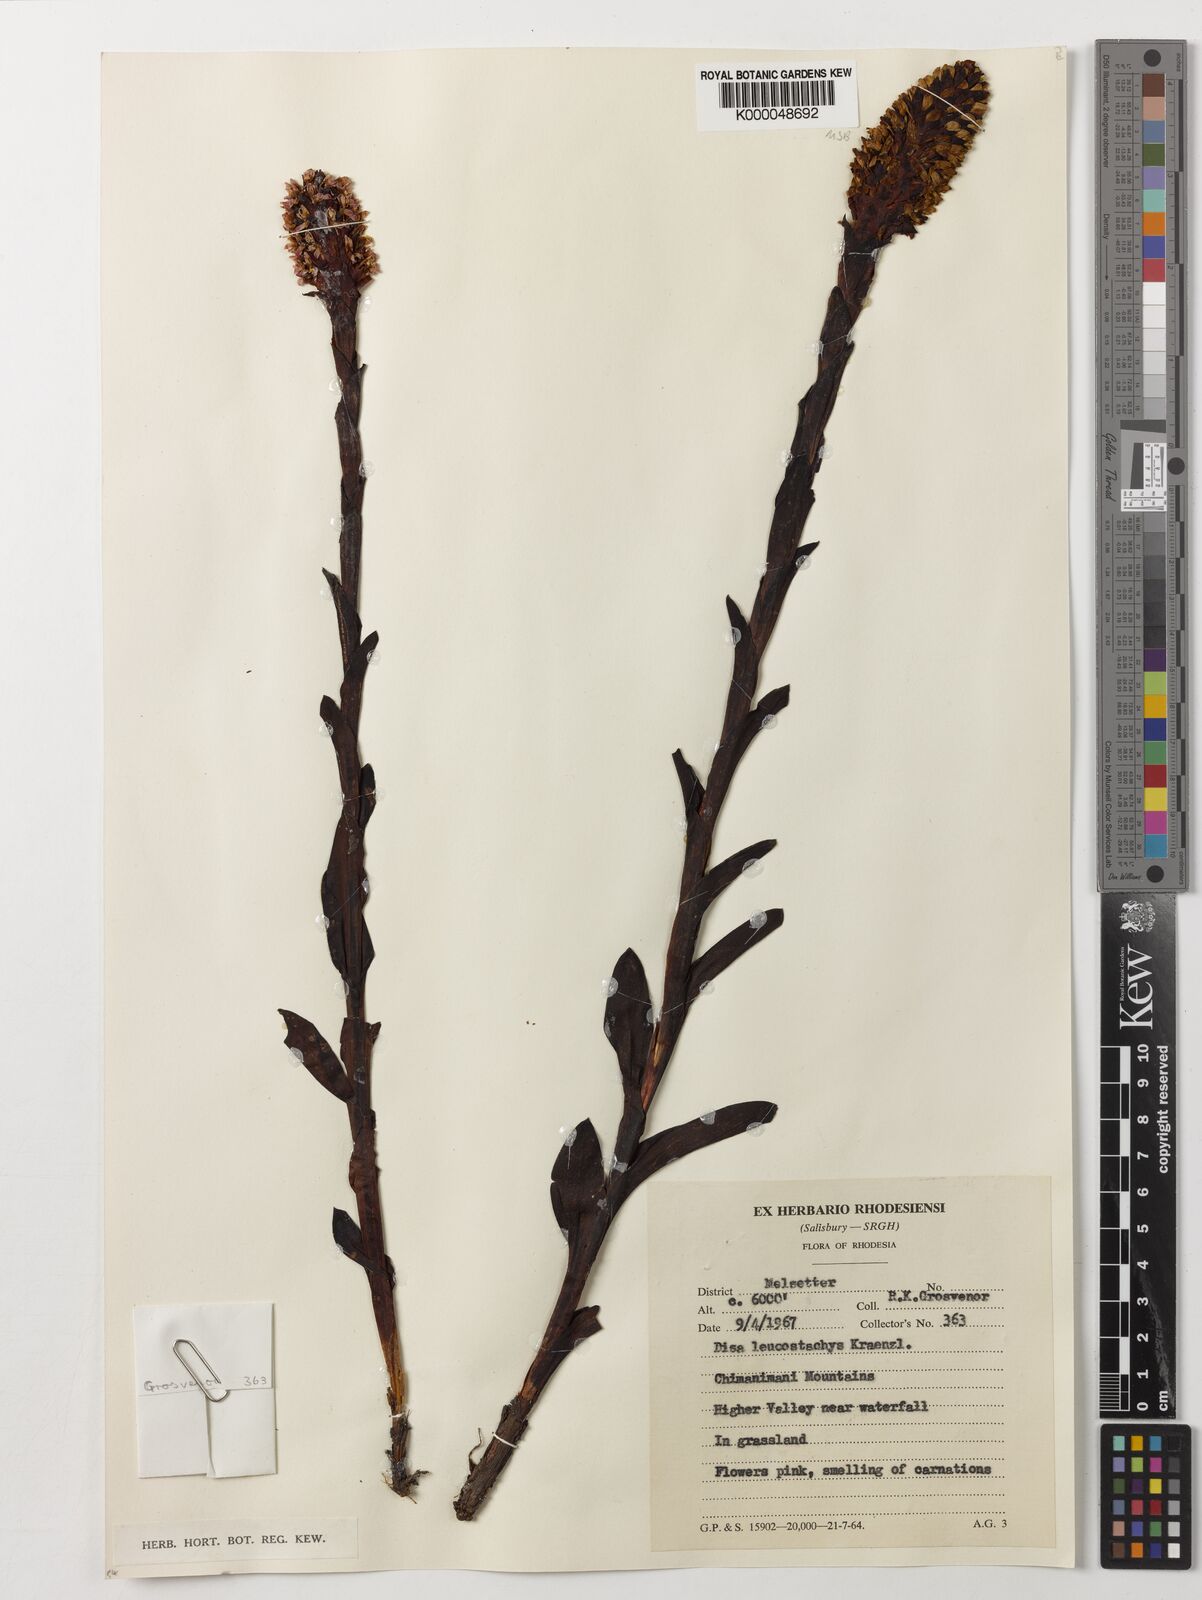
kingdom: Plantae
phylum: Tracheophyta
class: Liliopsida
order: Asparagales
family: Orchidaceae
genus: Disa
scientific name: Disa fragrans
